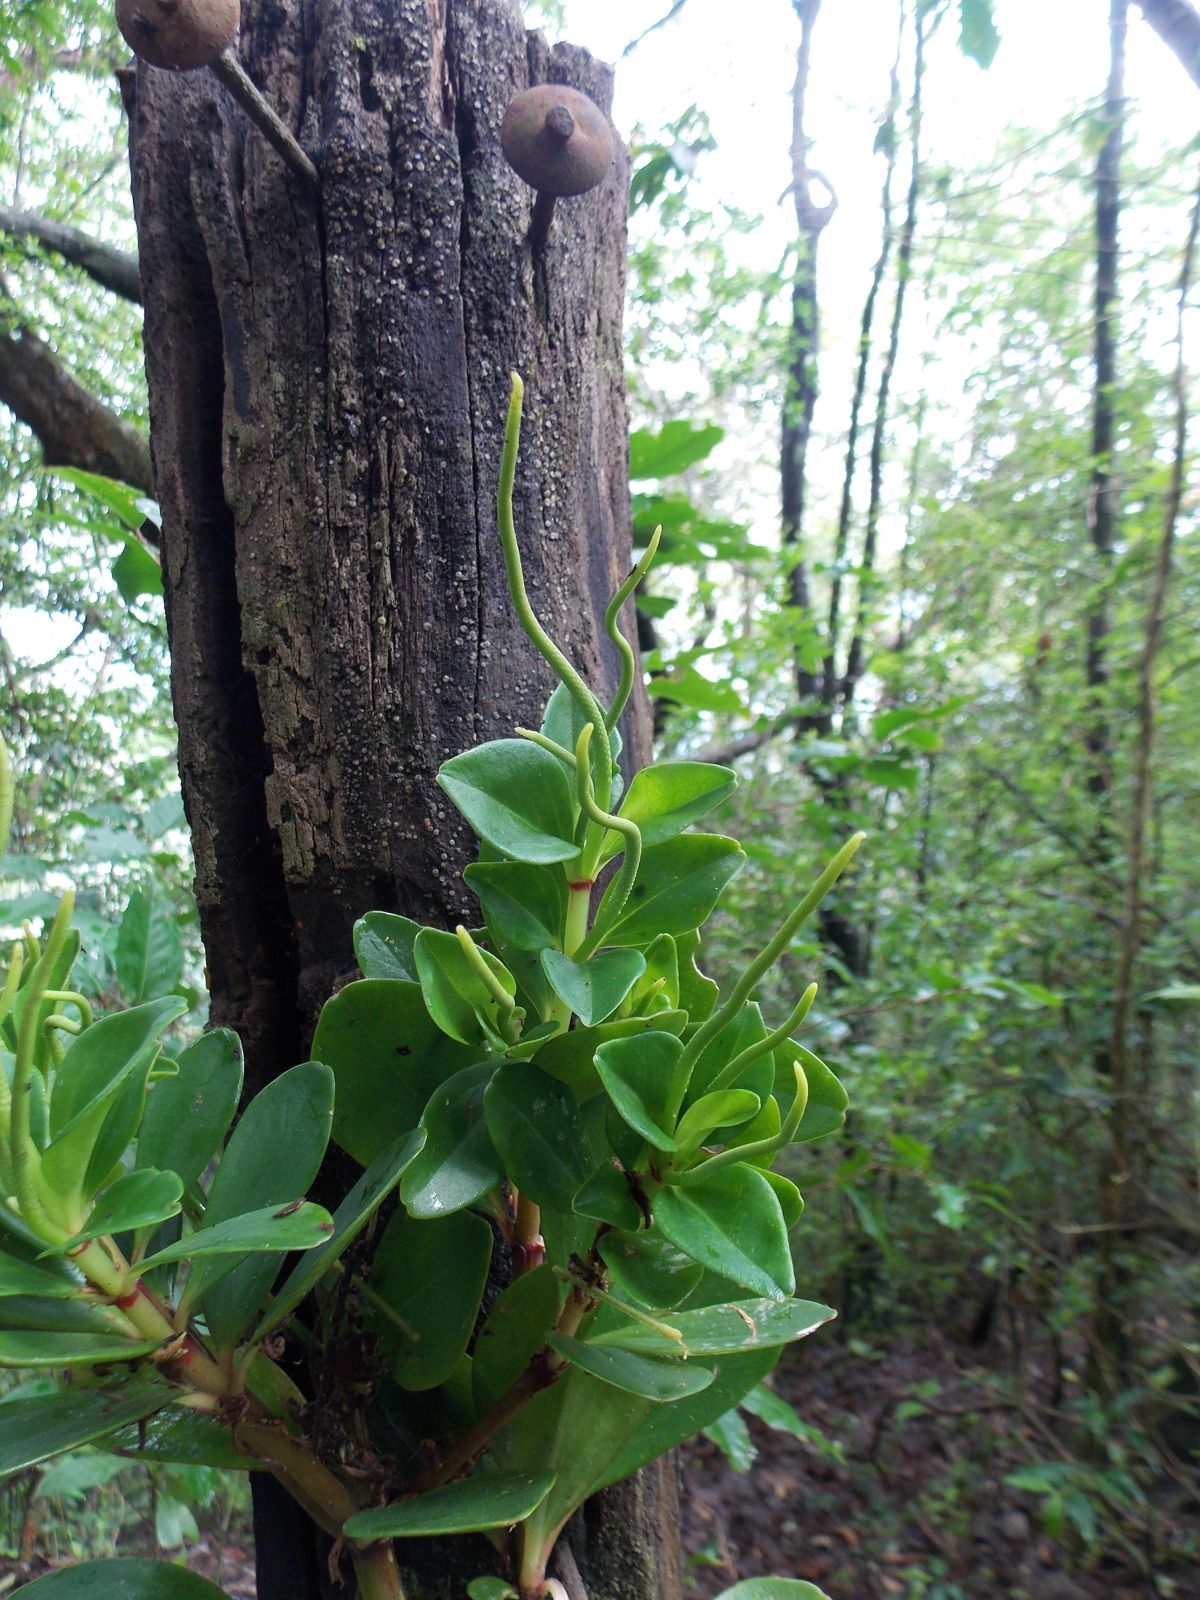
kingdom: Plantae
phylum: Tracheophyta
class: Magnoliopsida
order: Piperales
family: Piperaceae
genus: Peperomia
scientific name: Peperomia
